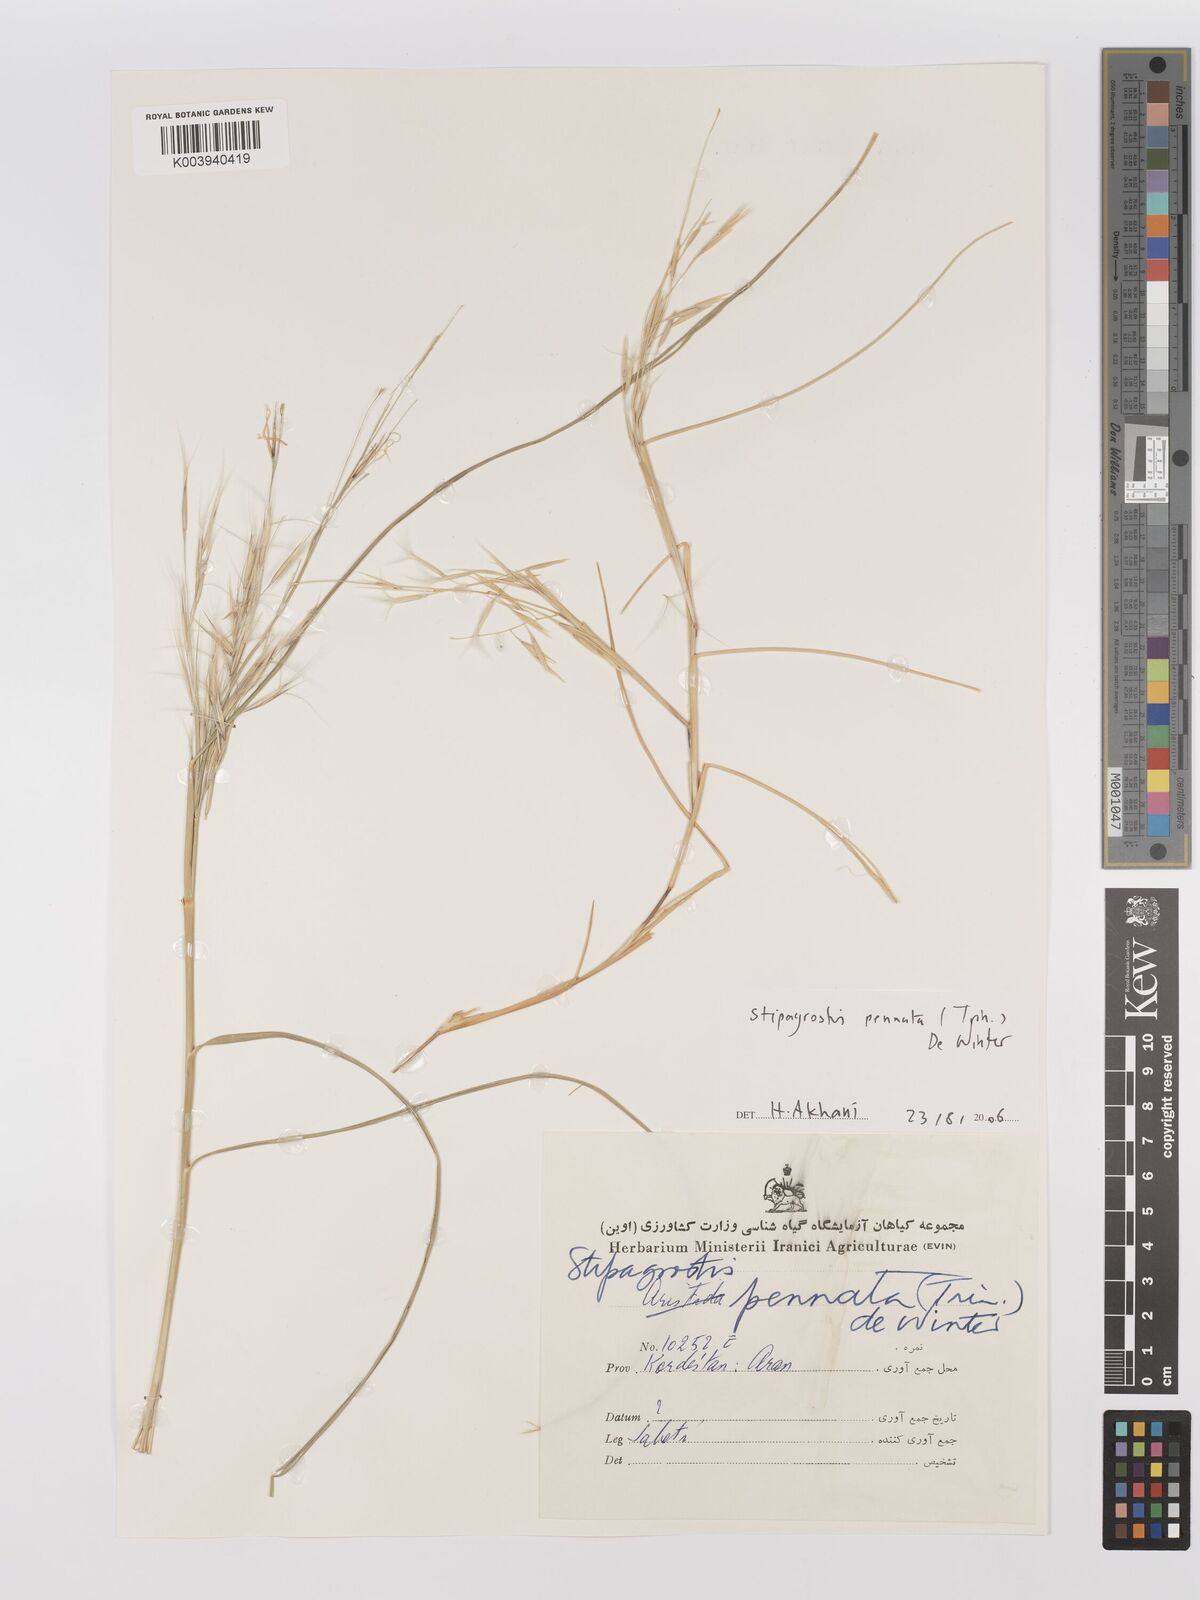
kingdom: Plantae
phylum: Tracheophyta
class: Liliopsida
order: Poales
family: Poaceae
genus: Stipagrostis
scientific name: Stipagrostis pennata
